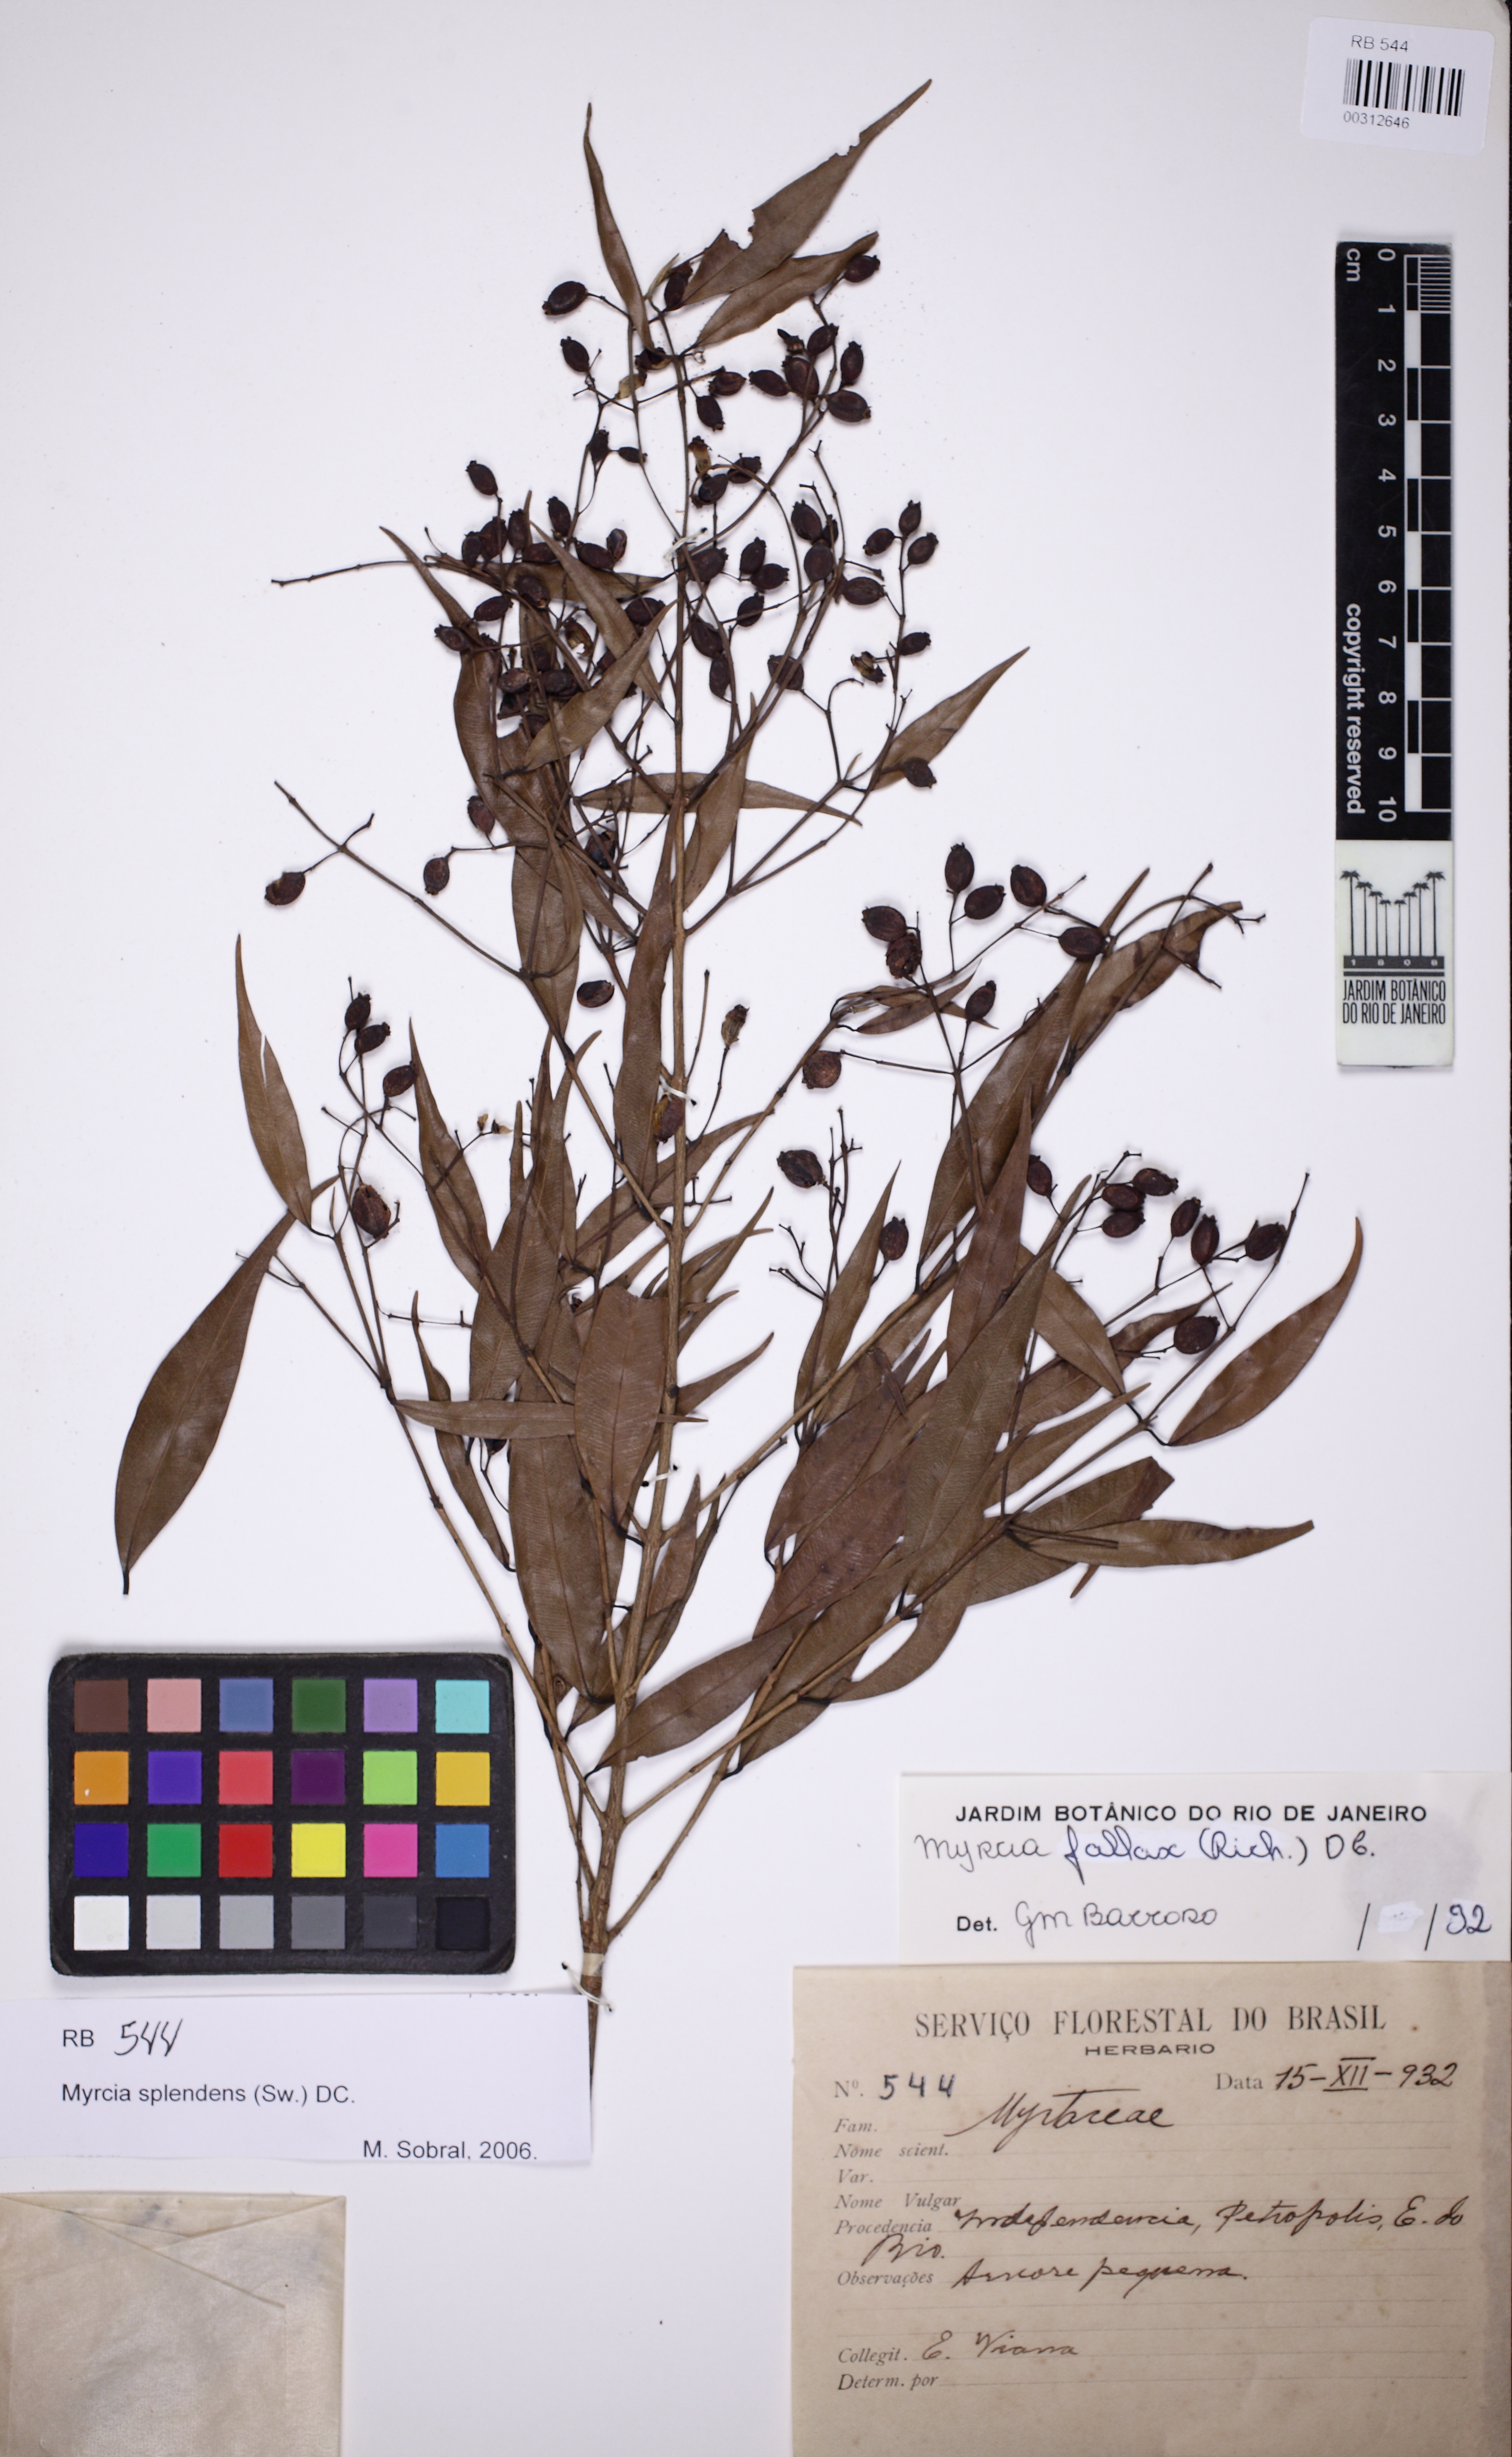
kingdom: Plantae
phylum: Tracheophyta
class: Magnoliopsida
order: Myrtales
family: Myrtaceae
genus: Myrcia
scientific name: Myrcia splendens
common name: Surinam cherry
